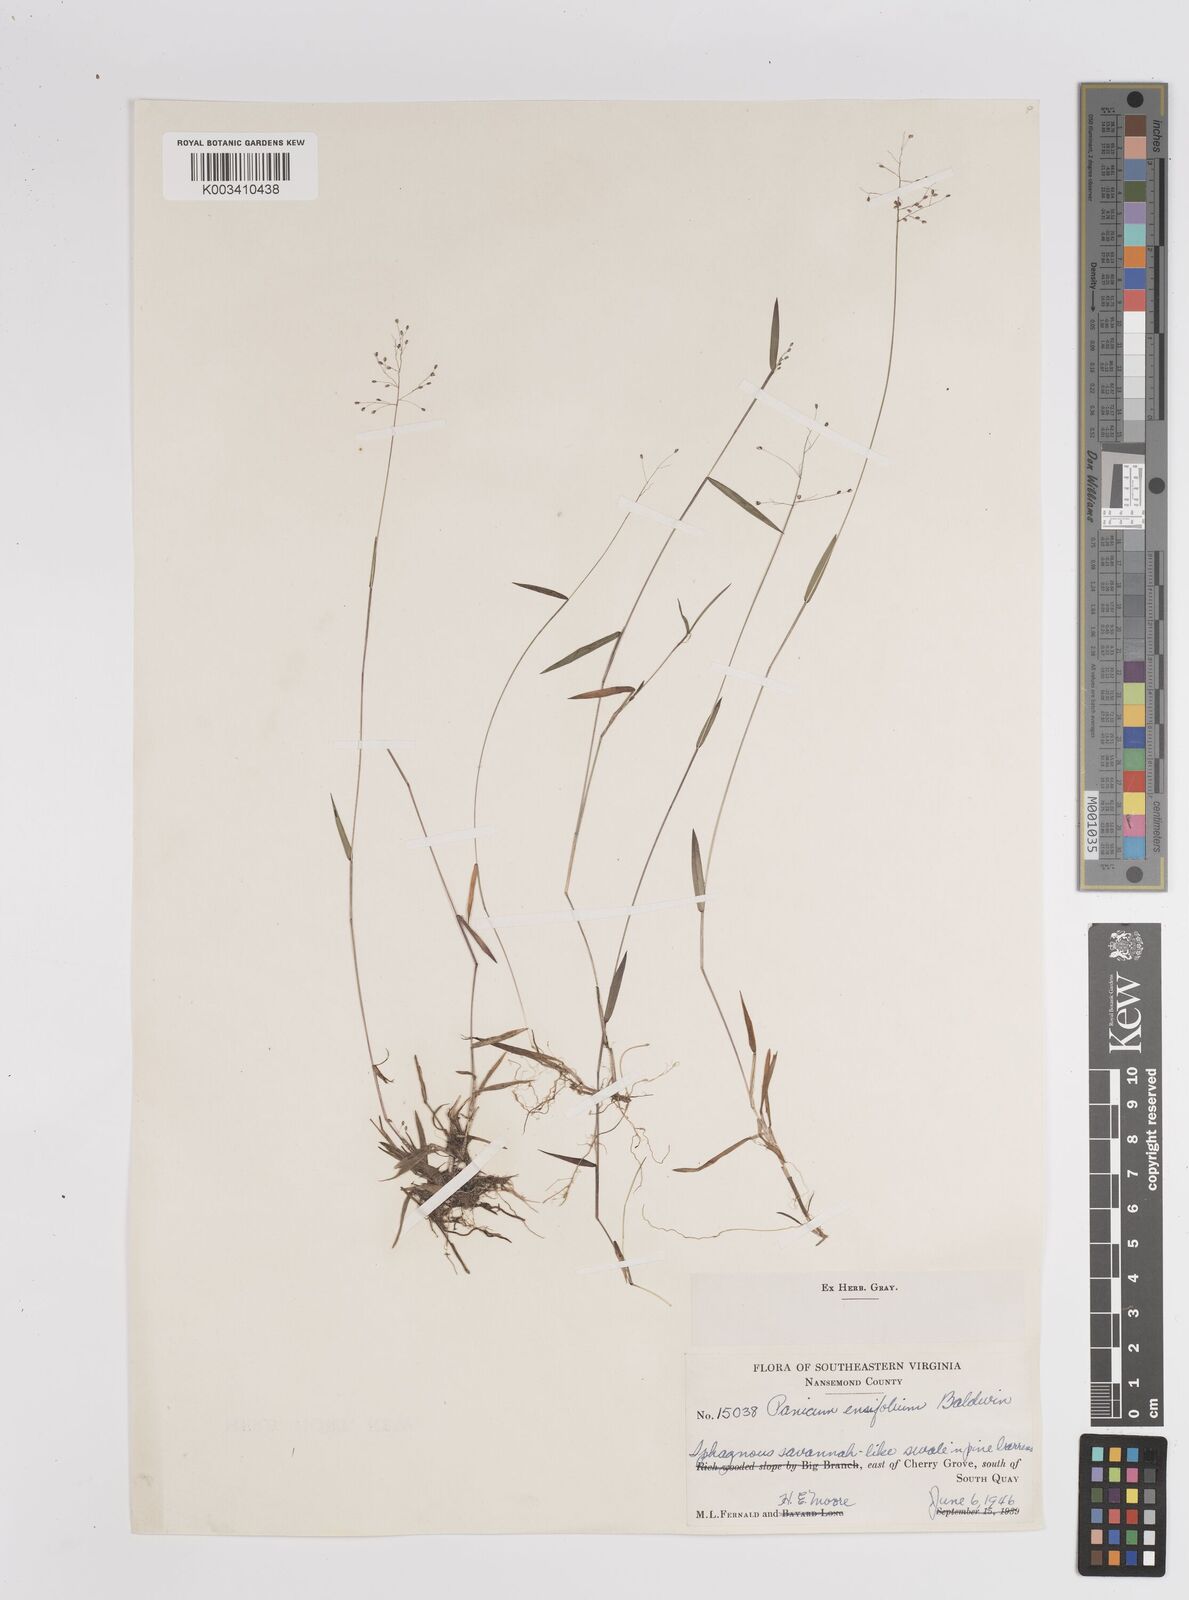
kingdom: Plantae
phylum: Tracheophyta
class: Liliopsida
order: Poales
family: Poaceae
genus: Dichanthelium
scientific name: Dichanthelium ensifolium
